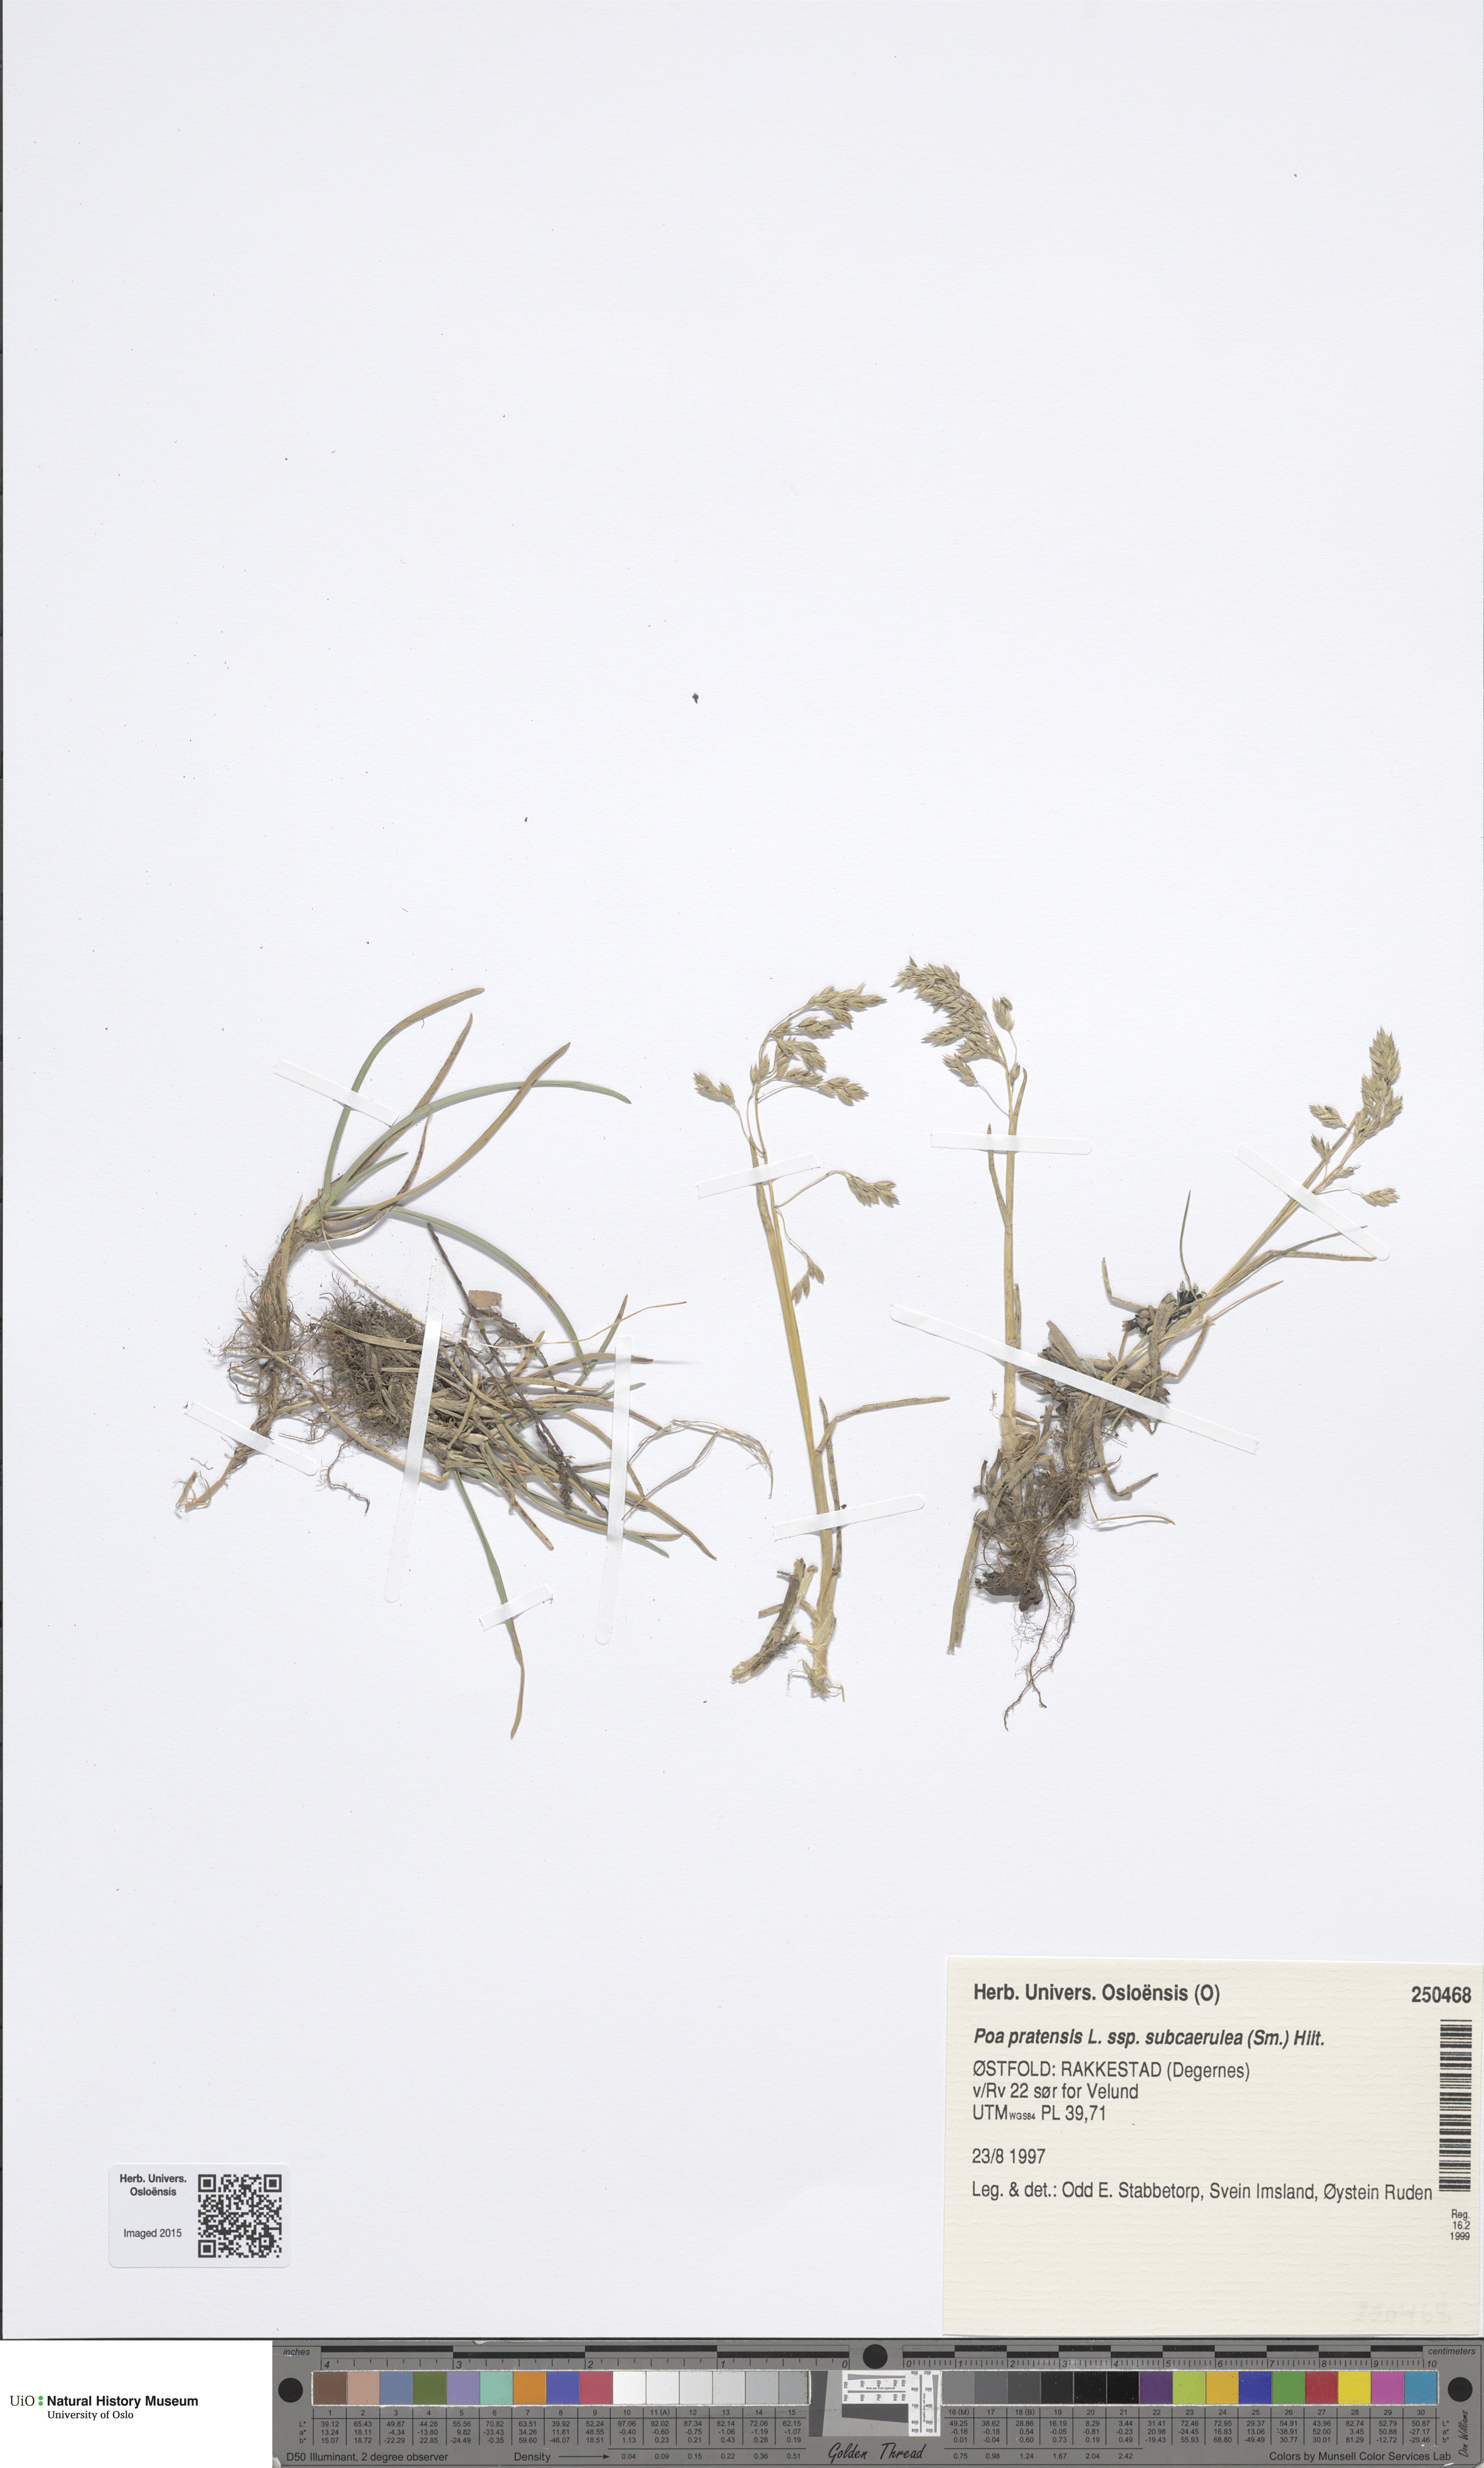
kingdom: Plantae
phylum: Tracheophyta
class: Liliopsida
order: Poales
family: Poaceae
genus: Poa
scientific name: Poa humilis
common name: Spreading meadow-grass
